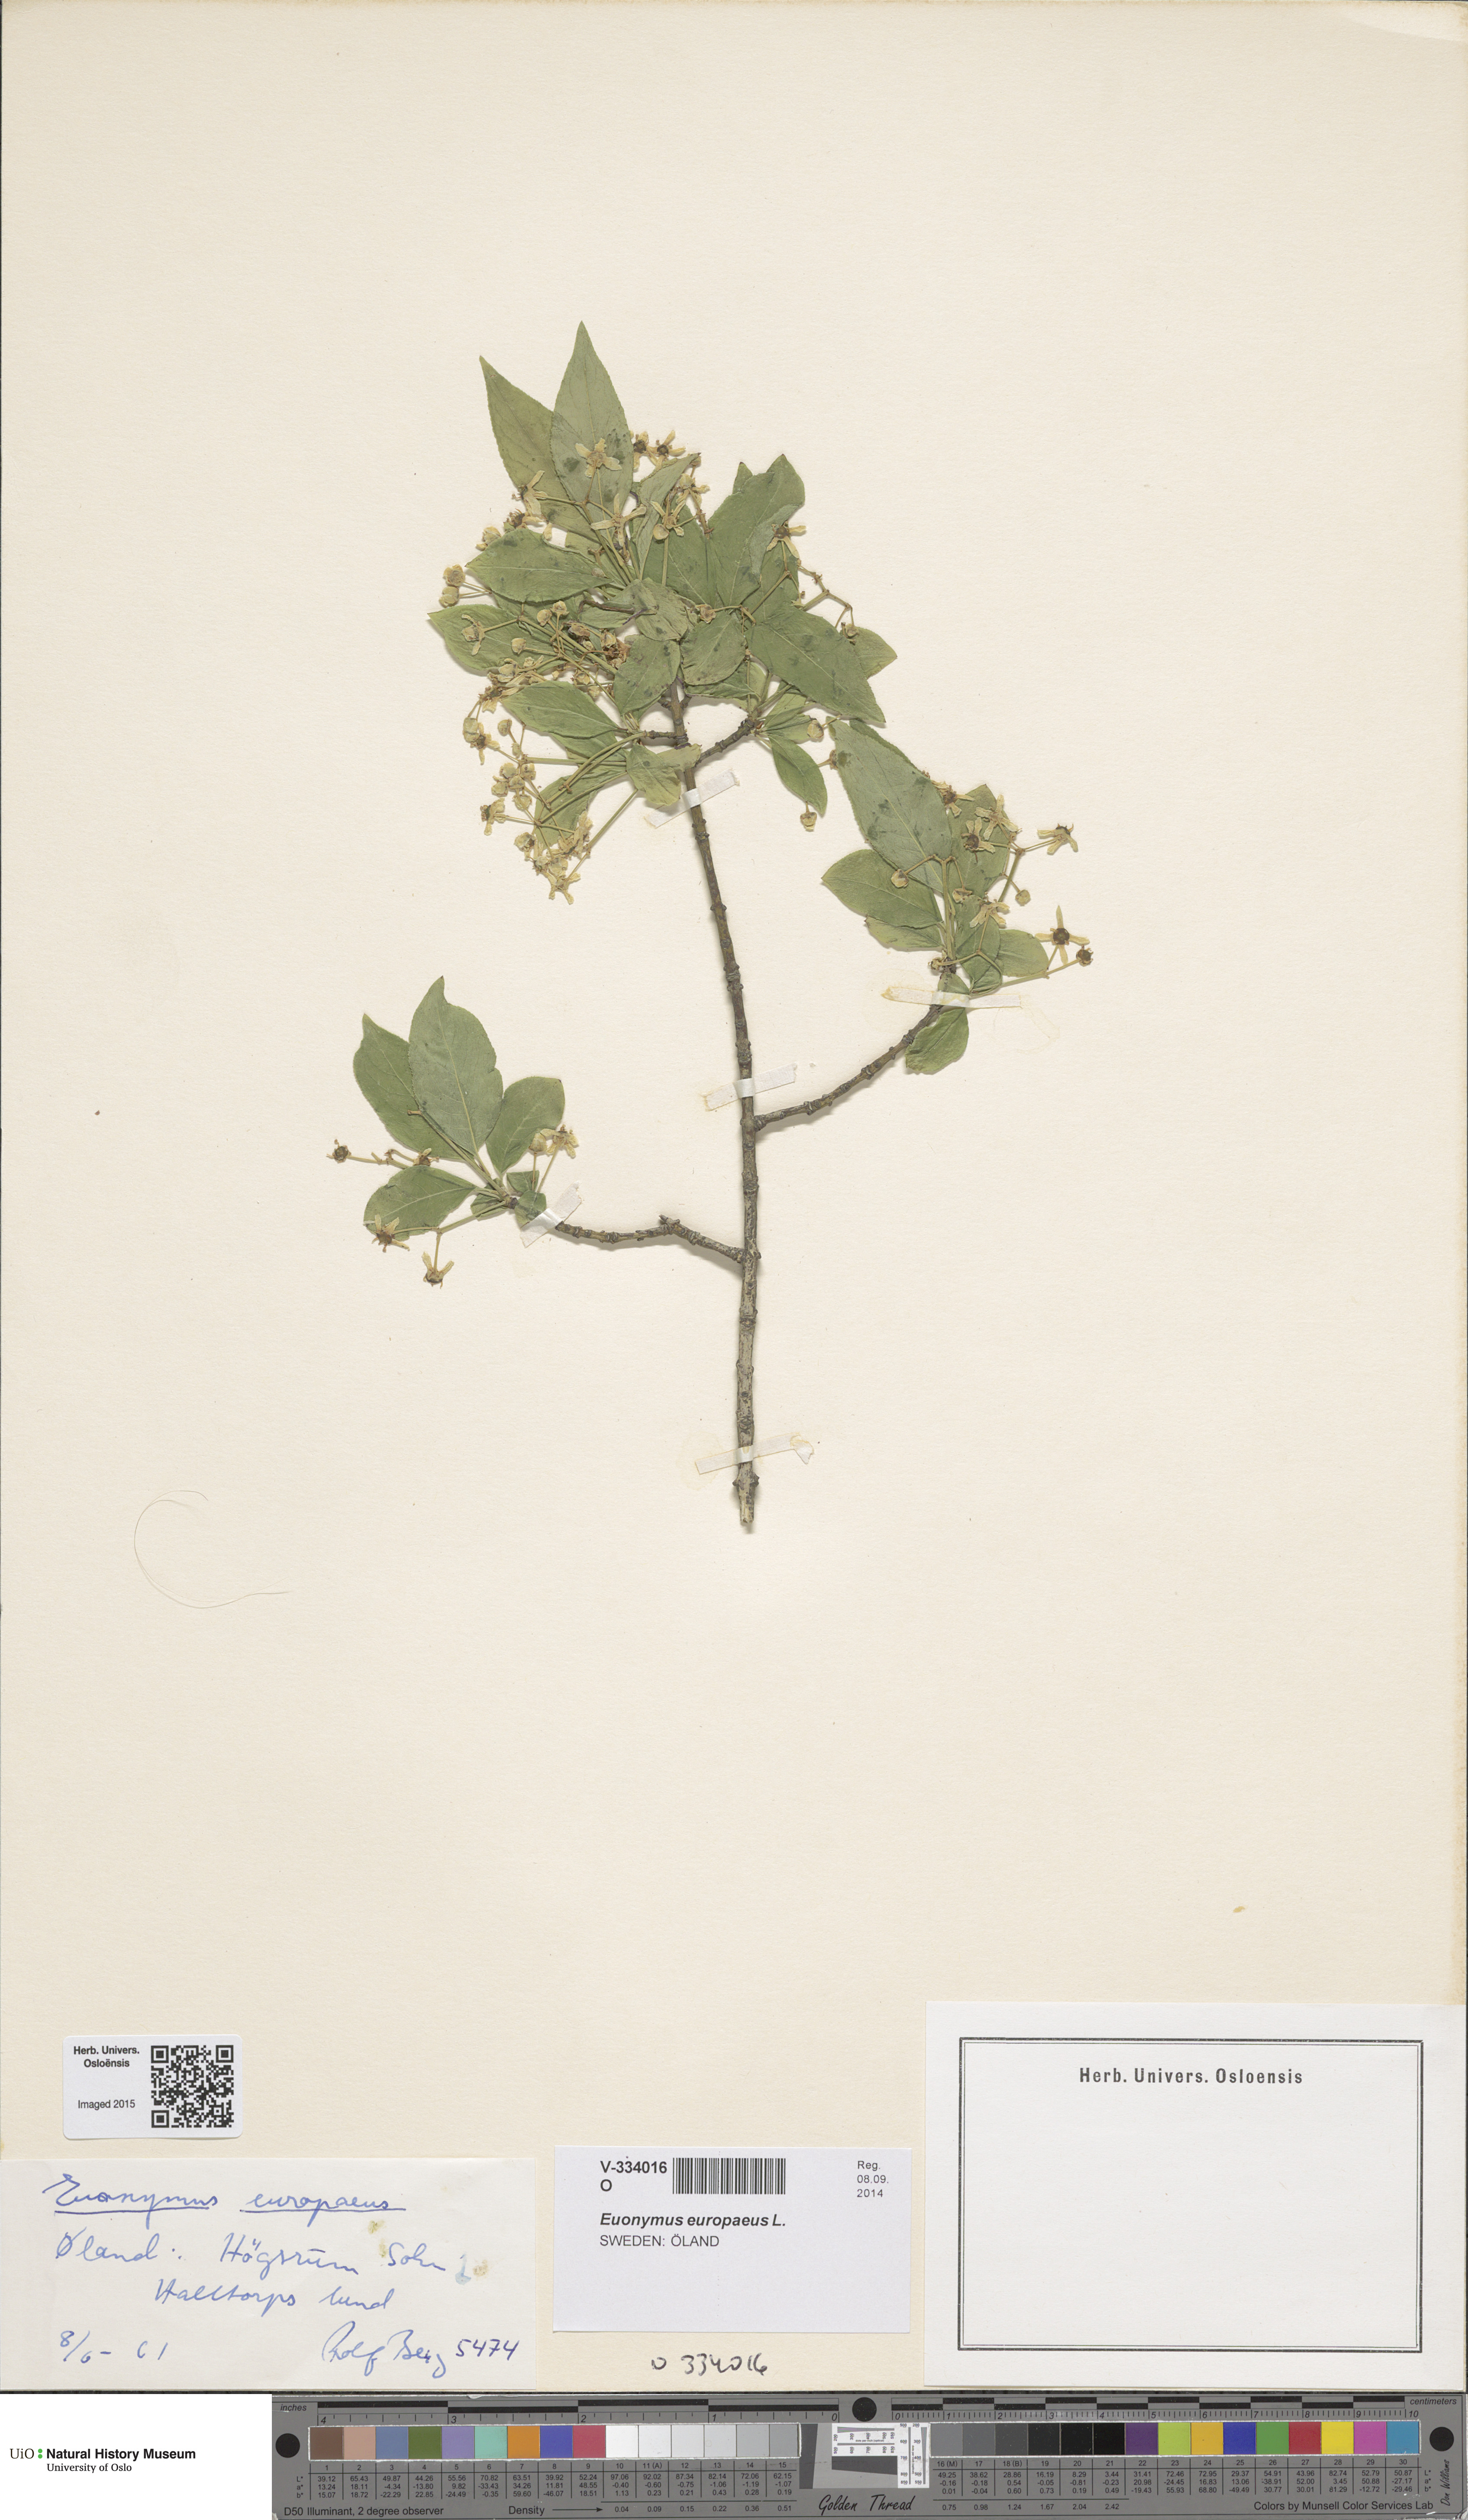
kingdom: Plantae
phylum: Tracheophyta
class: Magnoliopsida
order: Celastrales
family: Celastraceae
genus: Euonymus
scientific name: Euonymus europaeus
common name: Spindle
